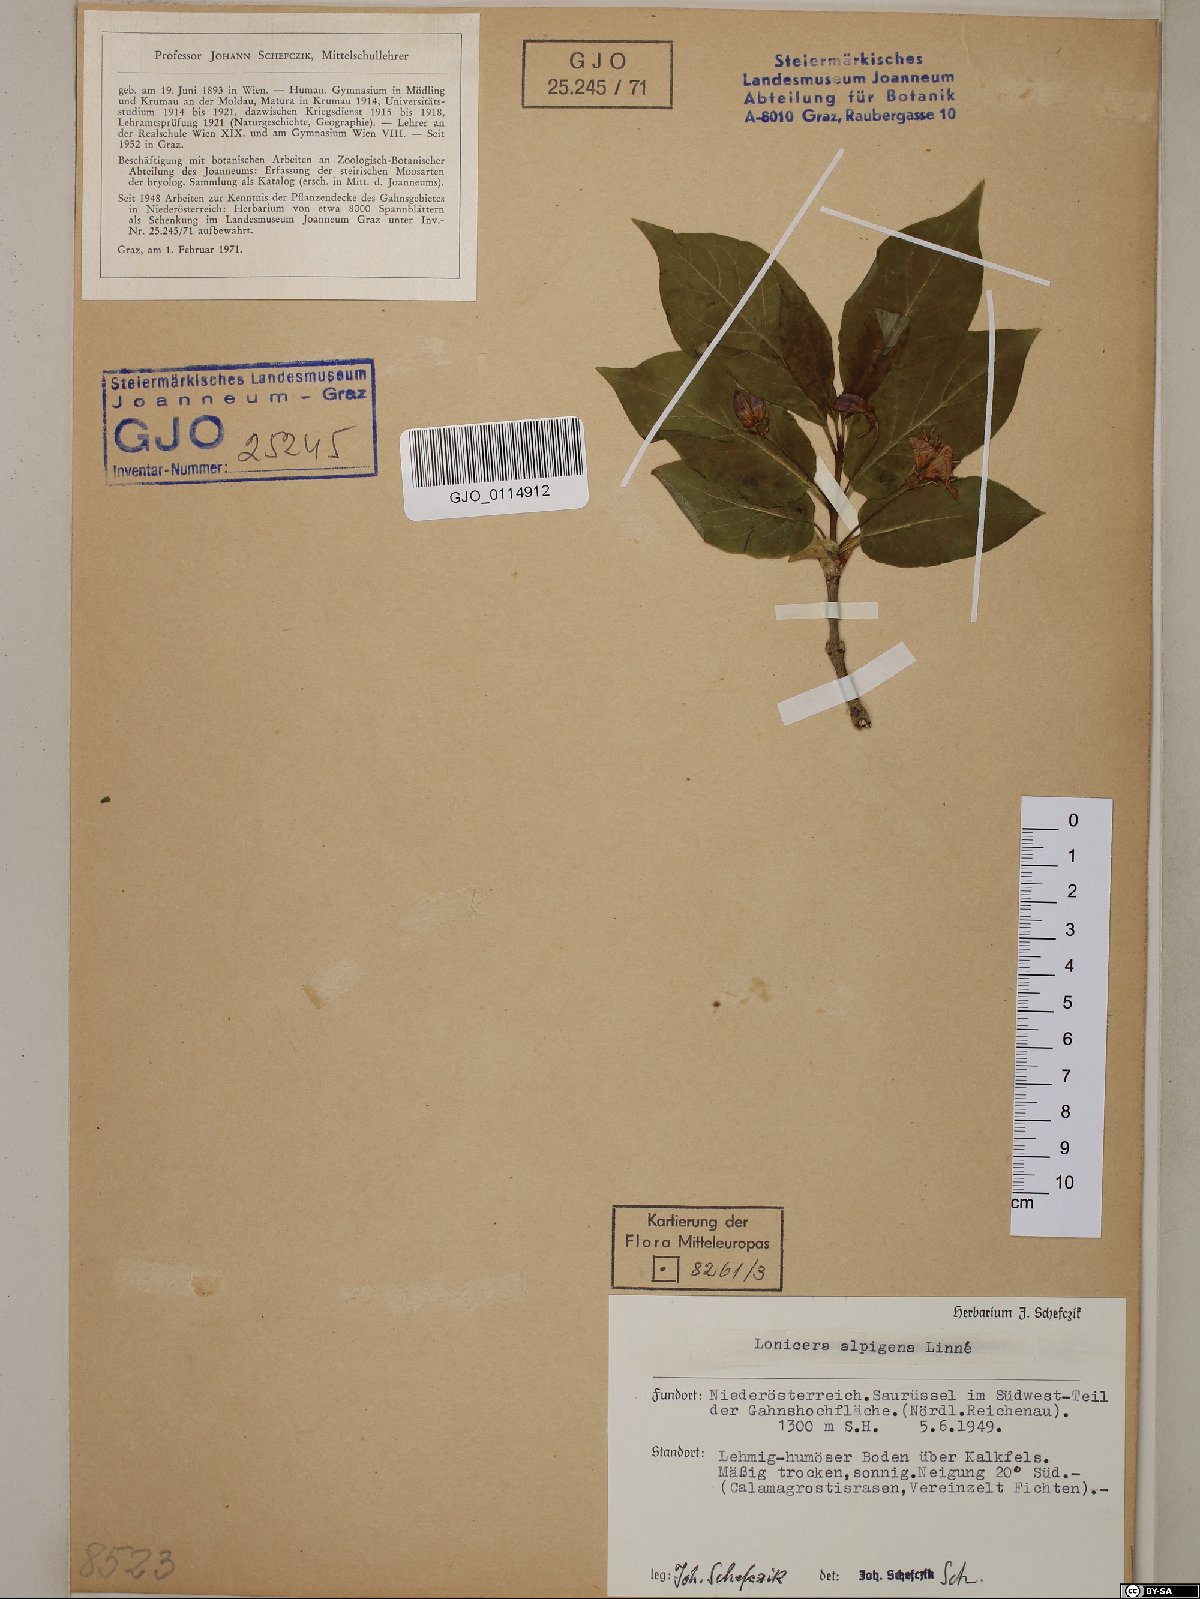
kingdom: Plantae
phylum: Tracheophyta
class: Magnoliopsida
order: Dipsacales
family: Caprifoliaceae
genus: Lonicera
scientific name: Lonicera alpigena
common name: Alpine honeysuckle
